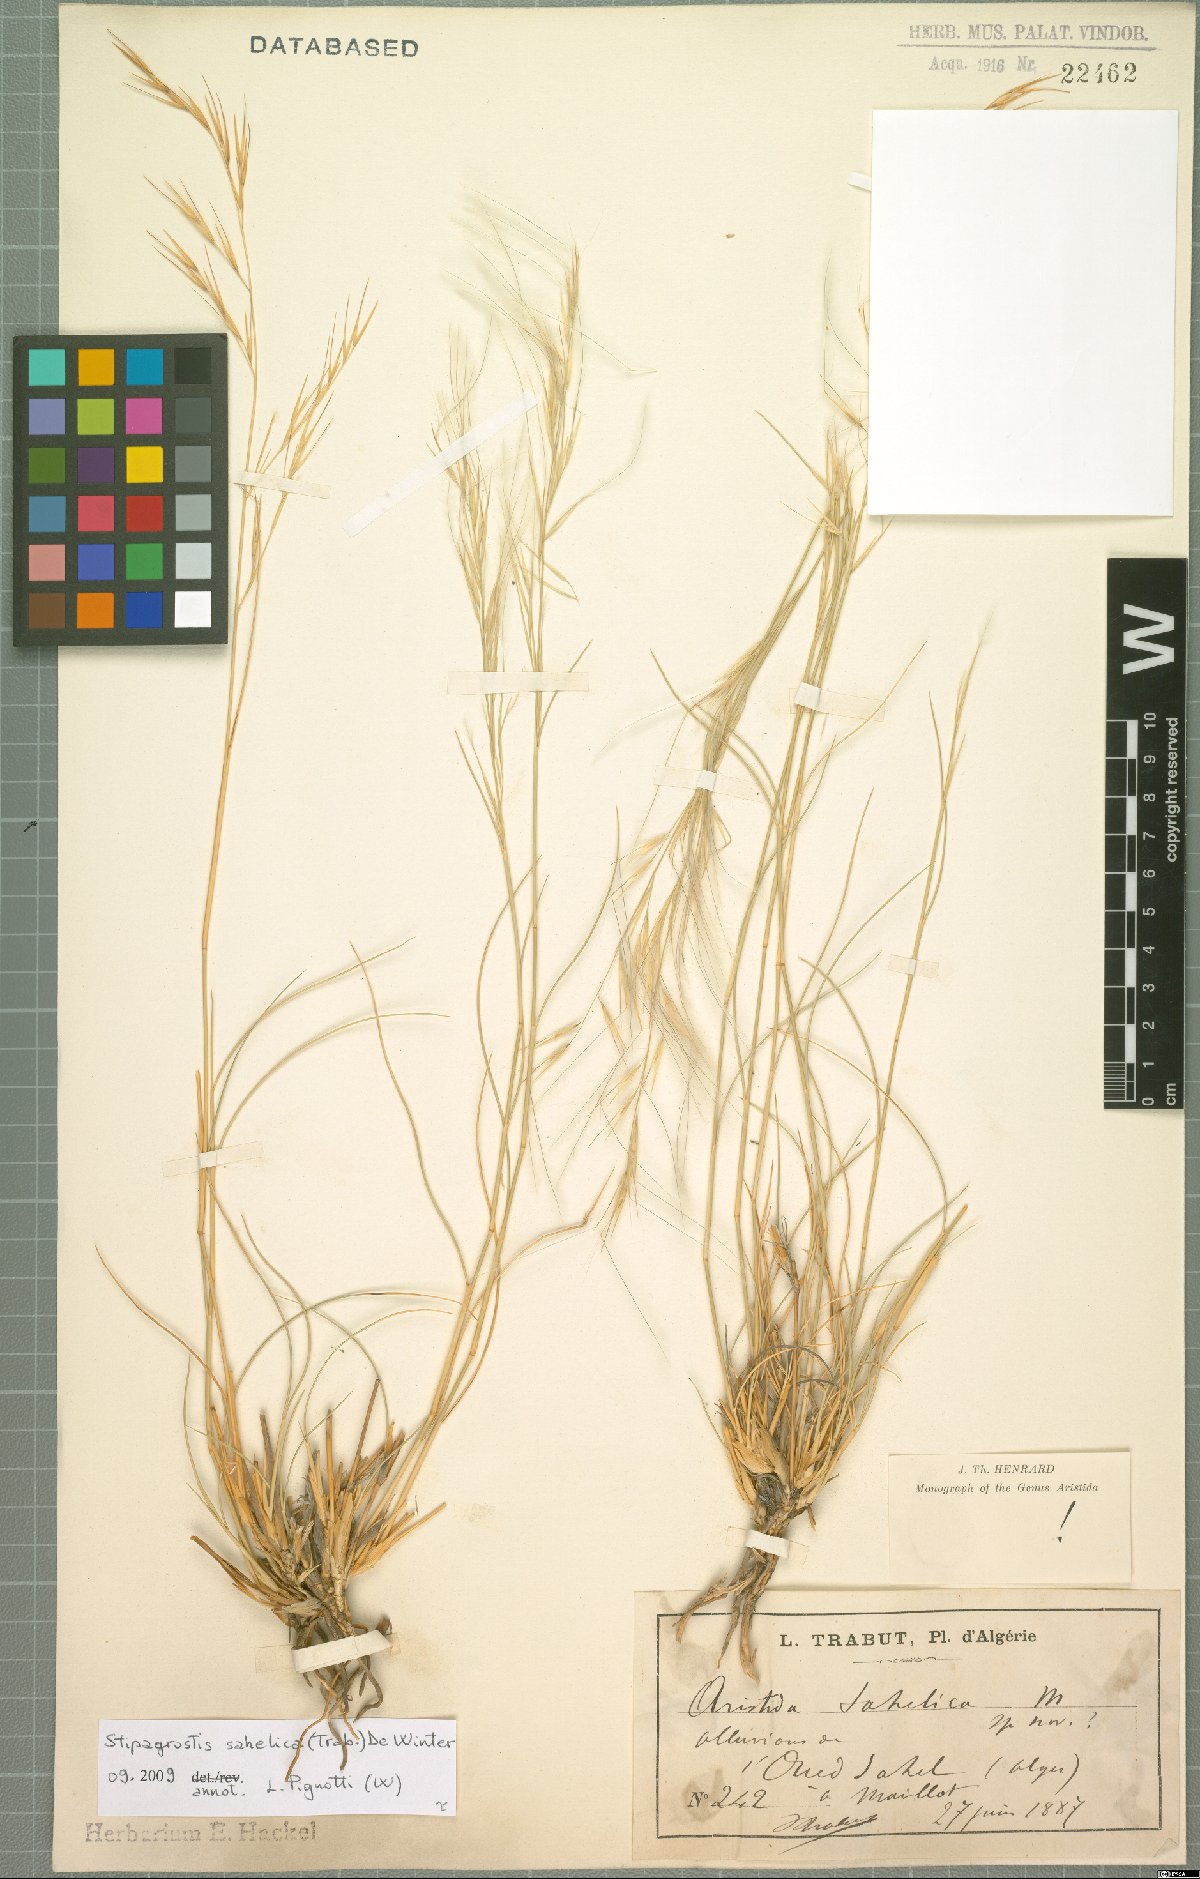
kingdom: Plantae
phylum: Tracheophyta
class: Liliopsida
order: Poales
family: Poaceae
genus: Stipagrostis
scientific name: Stipagrostis sahelica
